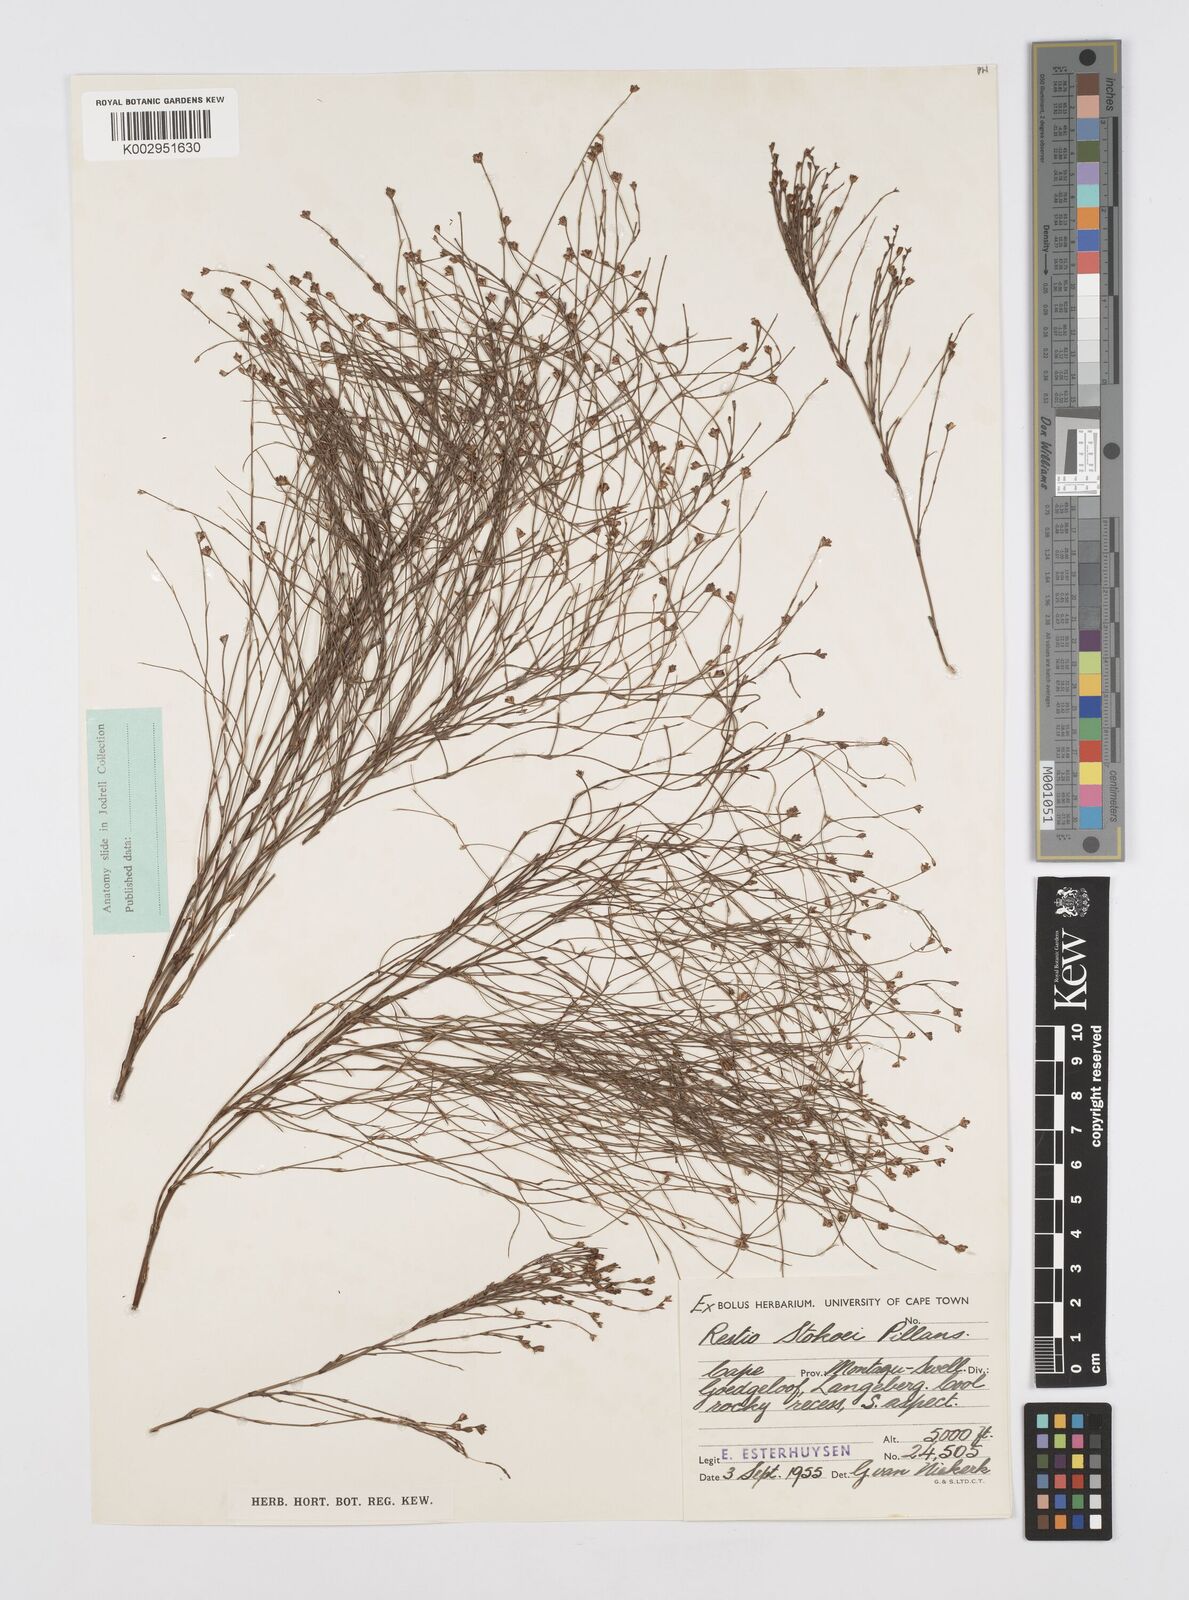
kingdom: Plantae
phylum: Tracheophyta
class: Liliopsida
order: Poales
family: Restionaceae
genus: Restio
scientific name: Restio stokoei
